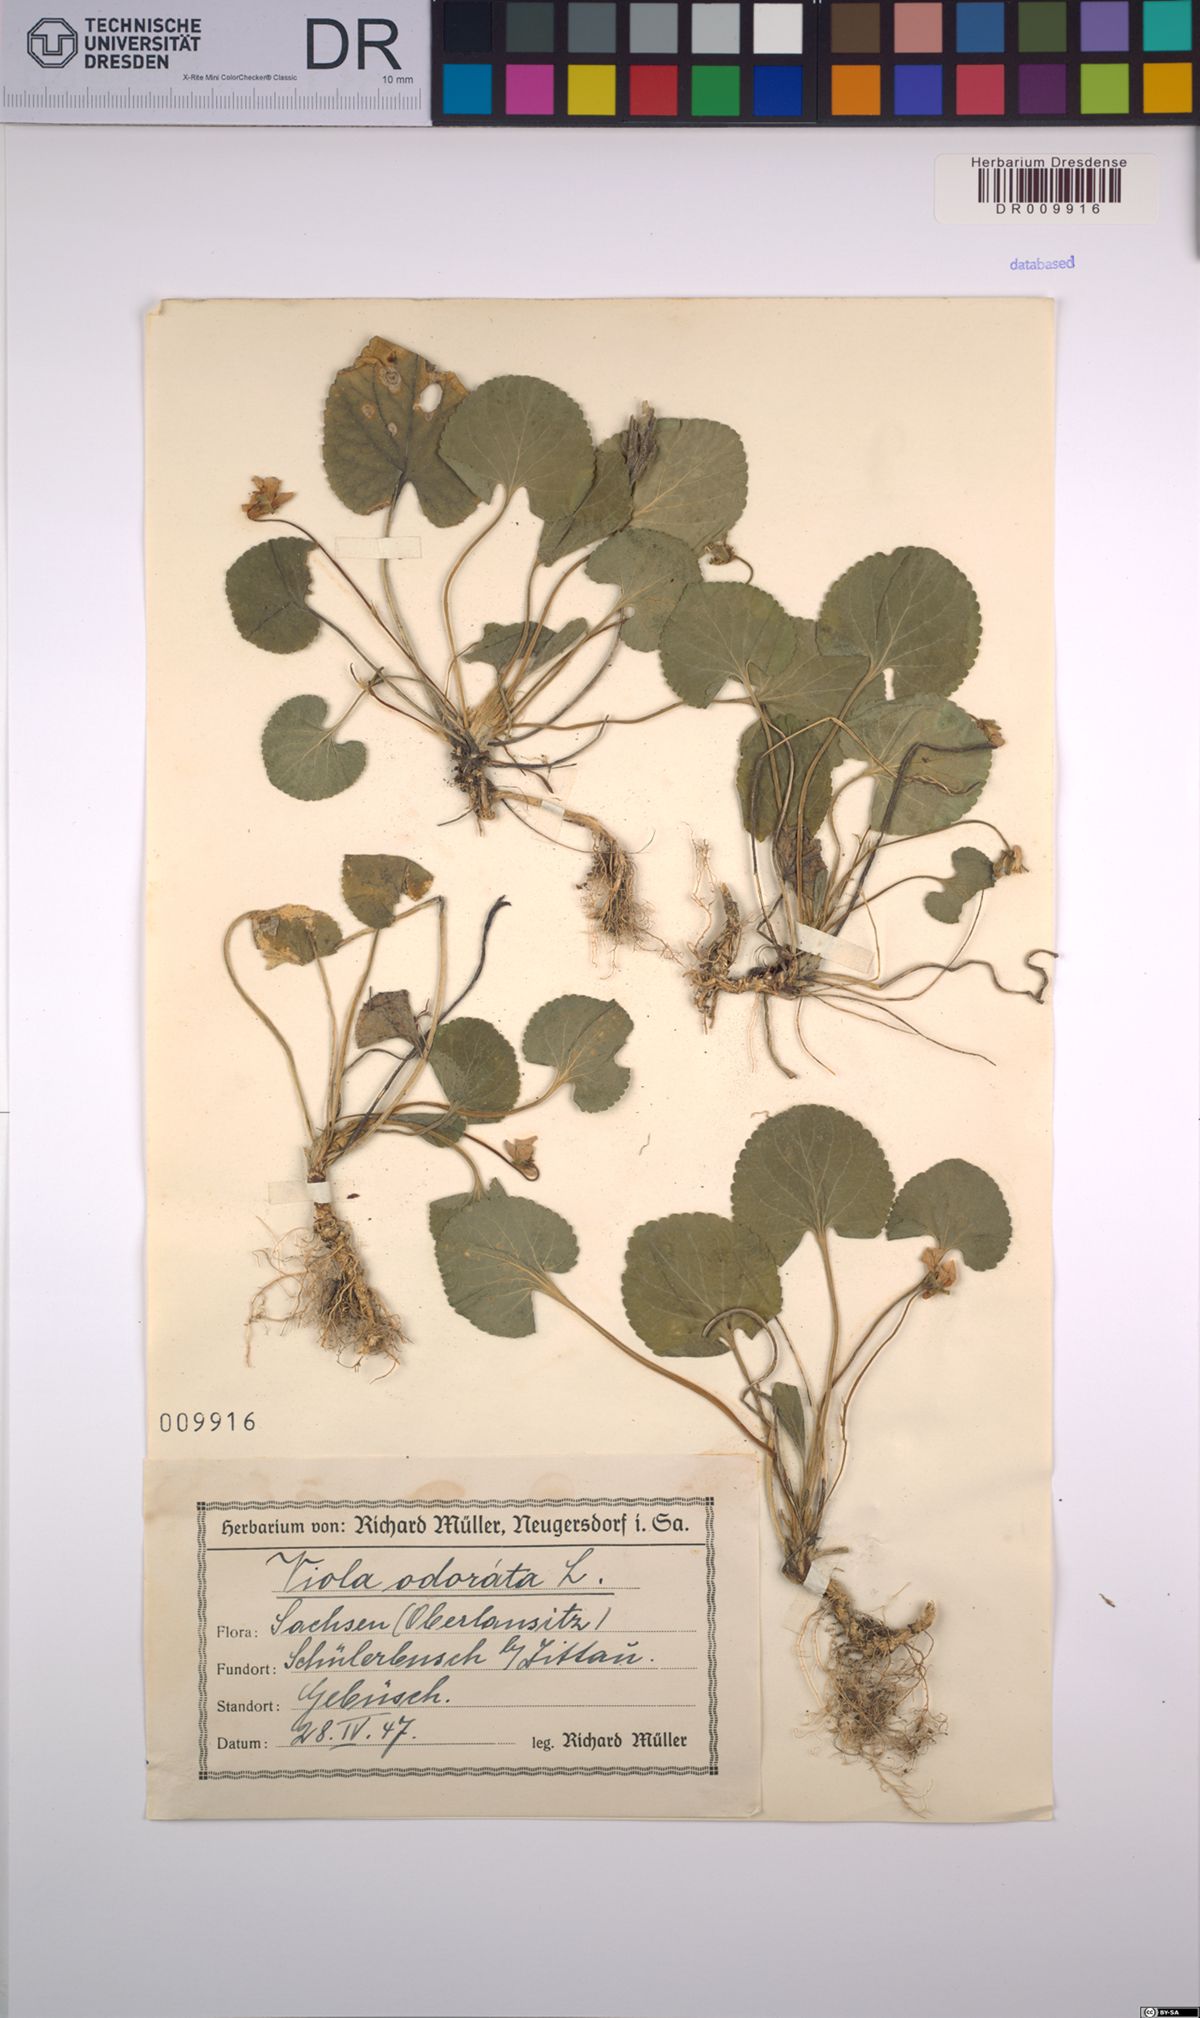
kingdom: Plantae
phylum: Tracheophyta
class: Magnoliopsida
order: Malpighiales
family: Violaceae
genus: Viola
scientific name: Viola odorata
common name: Sweet violet
